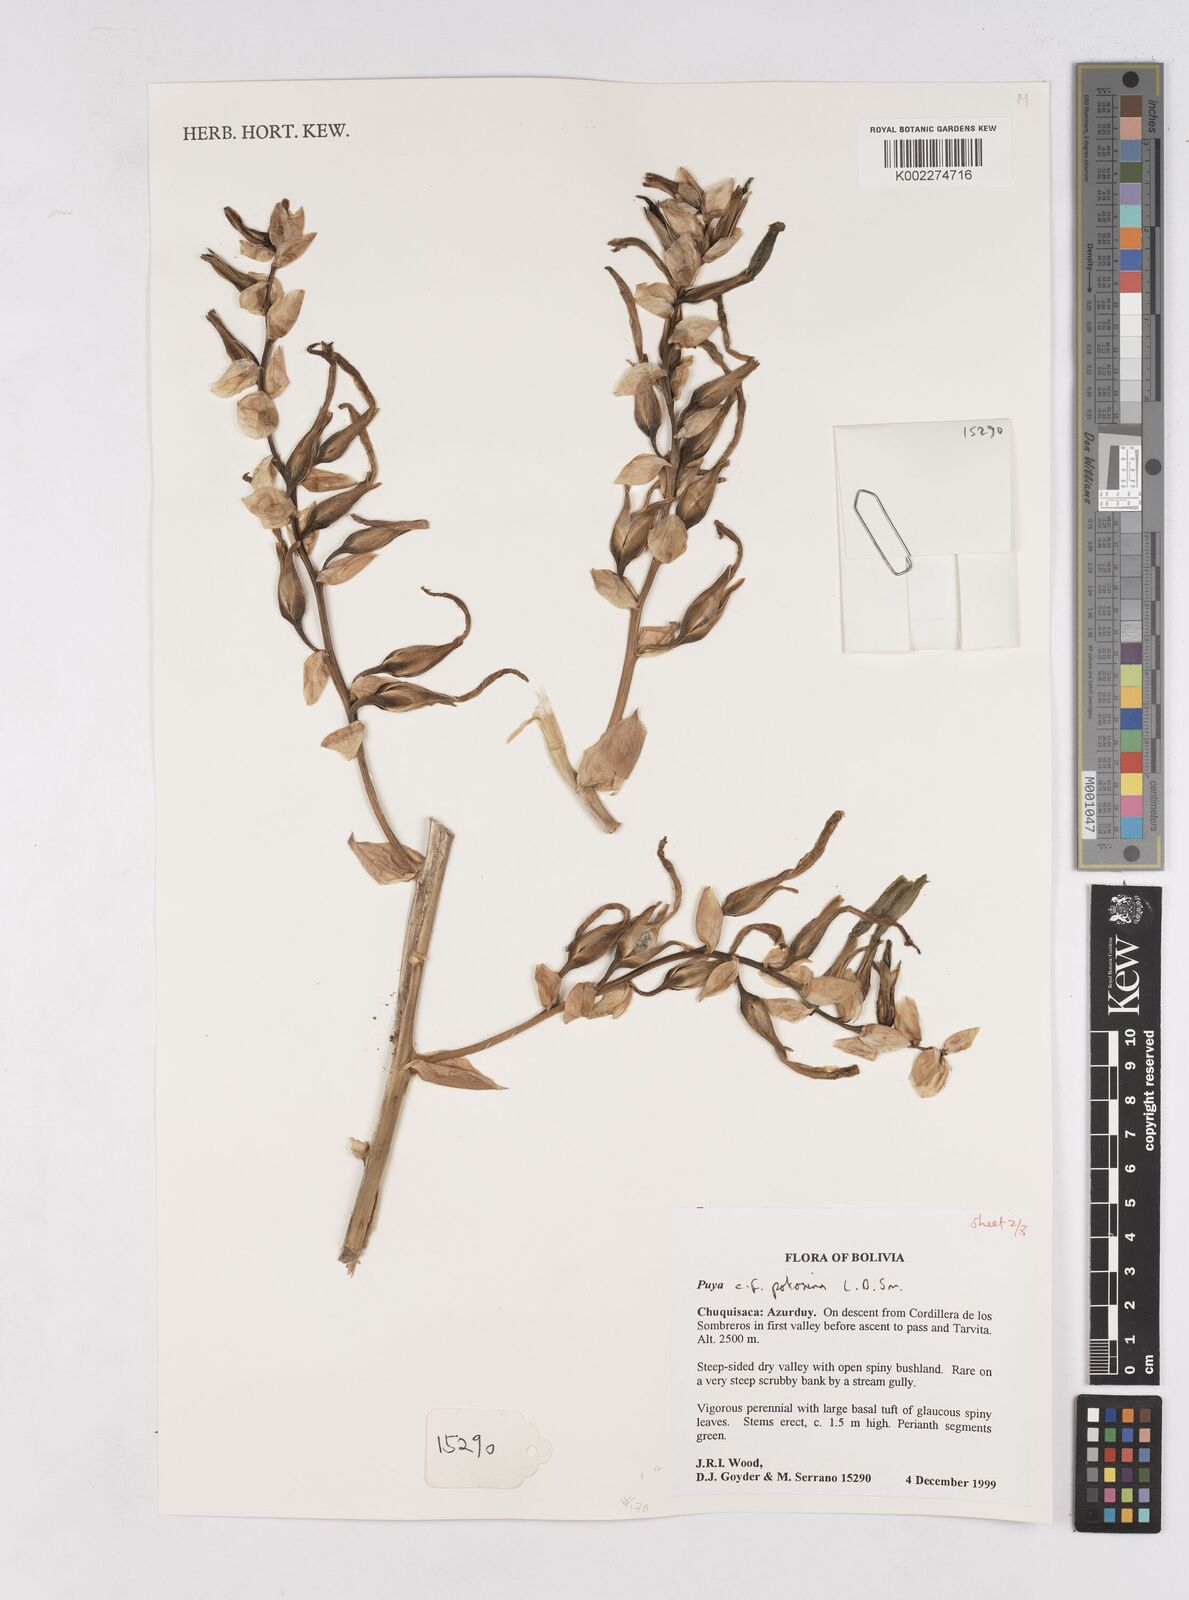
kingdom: Plantae
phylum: Tracheophyta
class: Liliopsida
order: Poales
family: Bromeliaceae
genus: Puya
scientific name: Puya potosina
